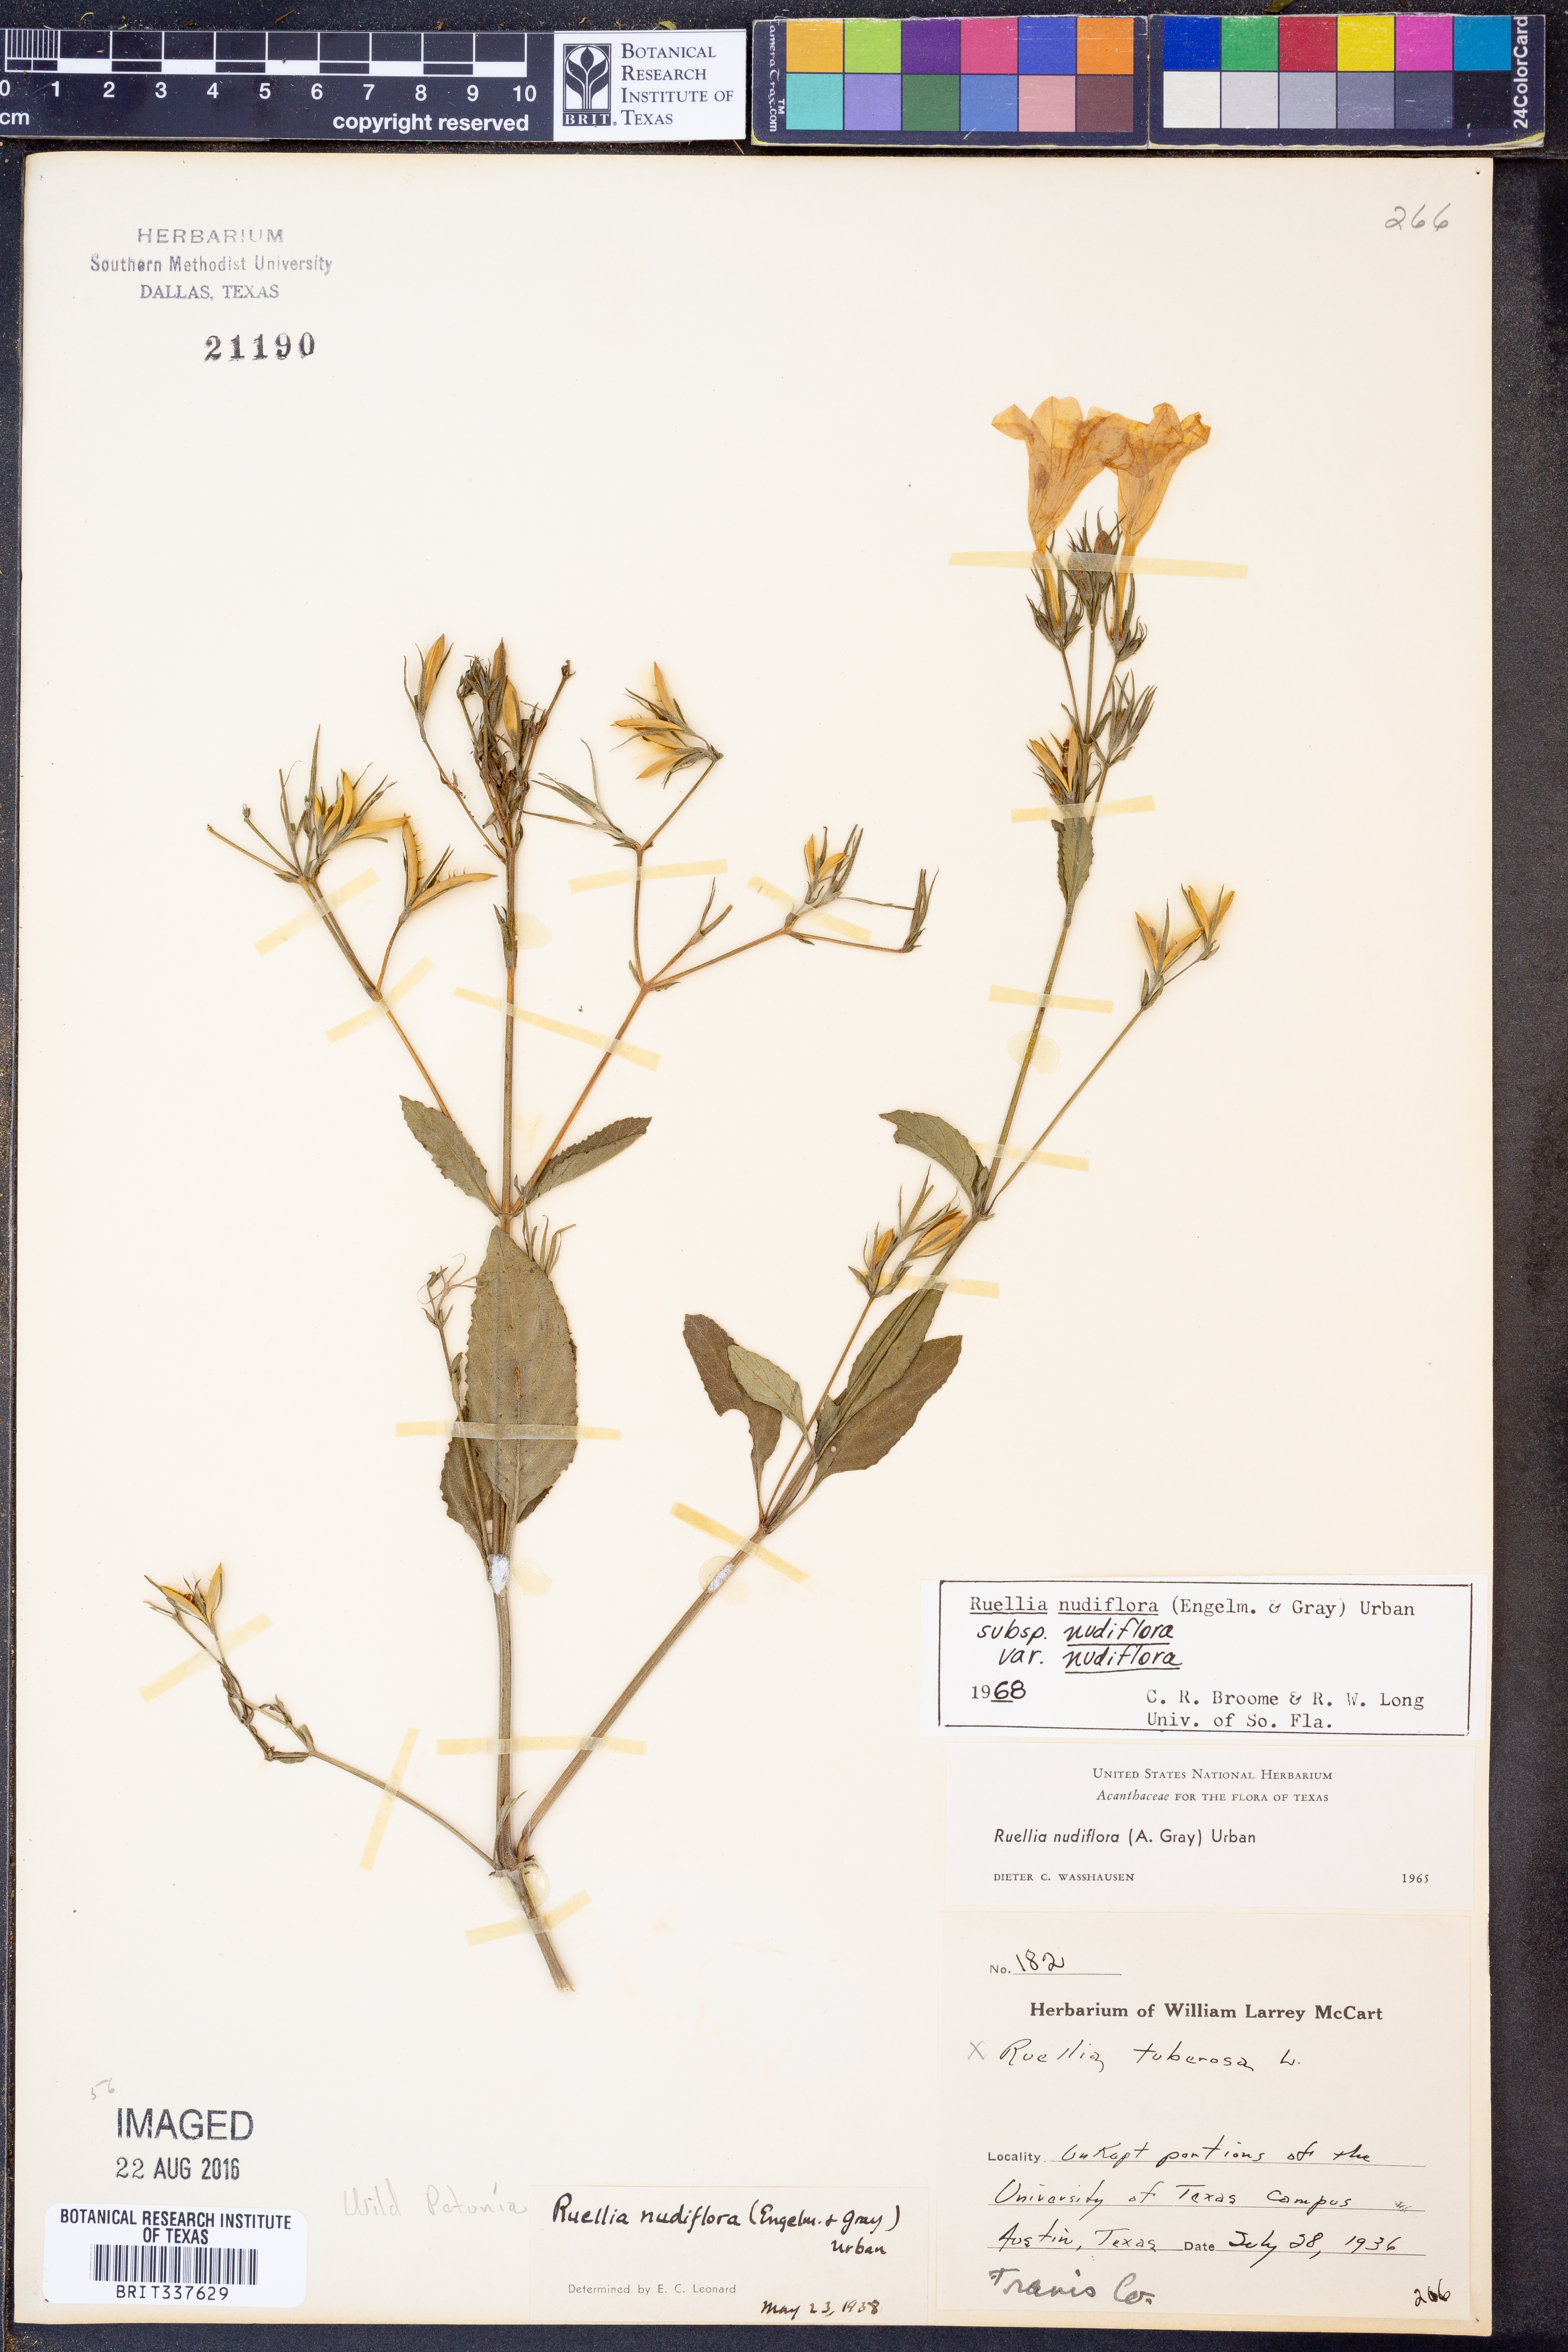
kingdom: Plantae
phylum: Tracheophyta
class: Magnoliopsida
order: Lamiales
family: Acanthaceae
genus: Ruellia
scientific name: Ruellia ciliatiflora
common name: Hairyflower wild petunia
